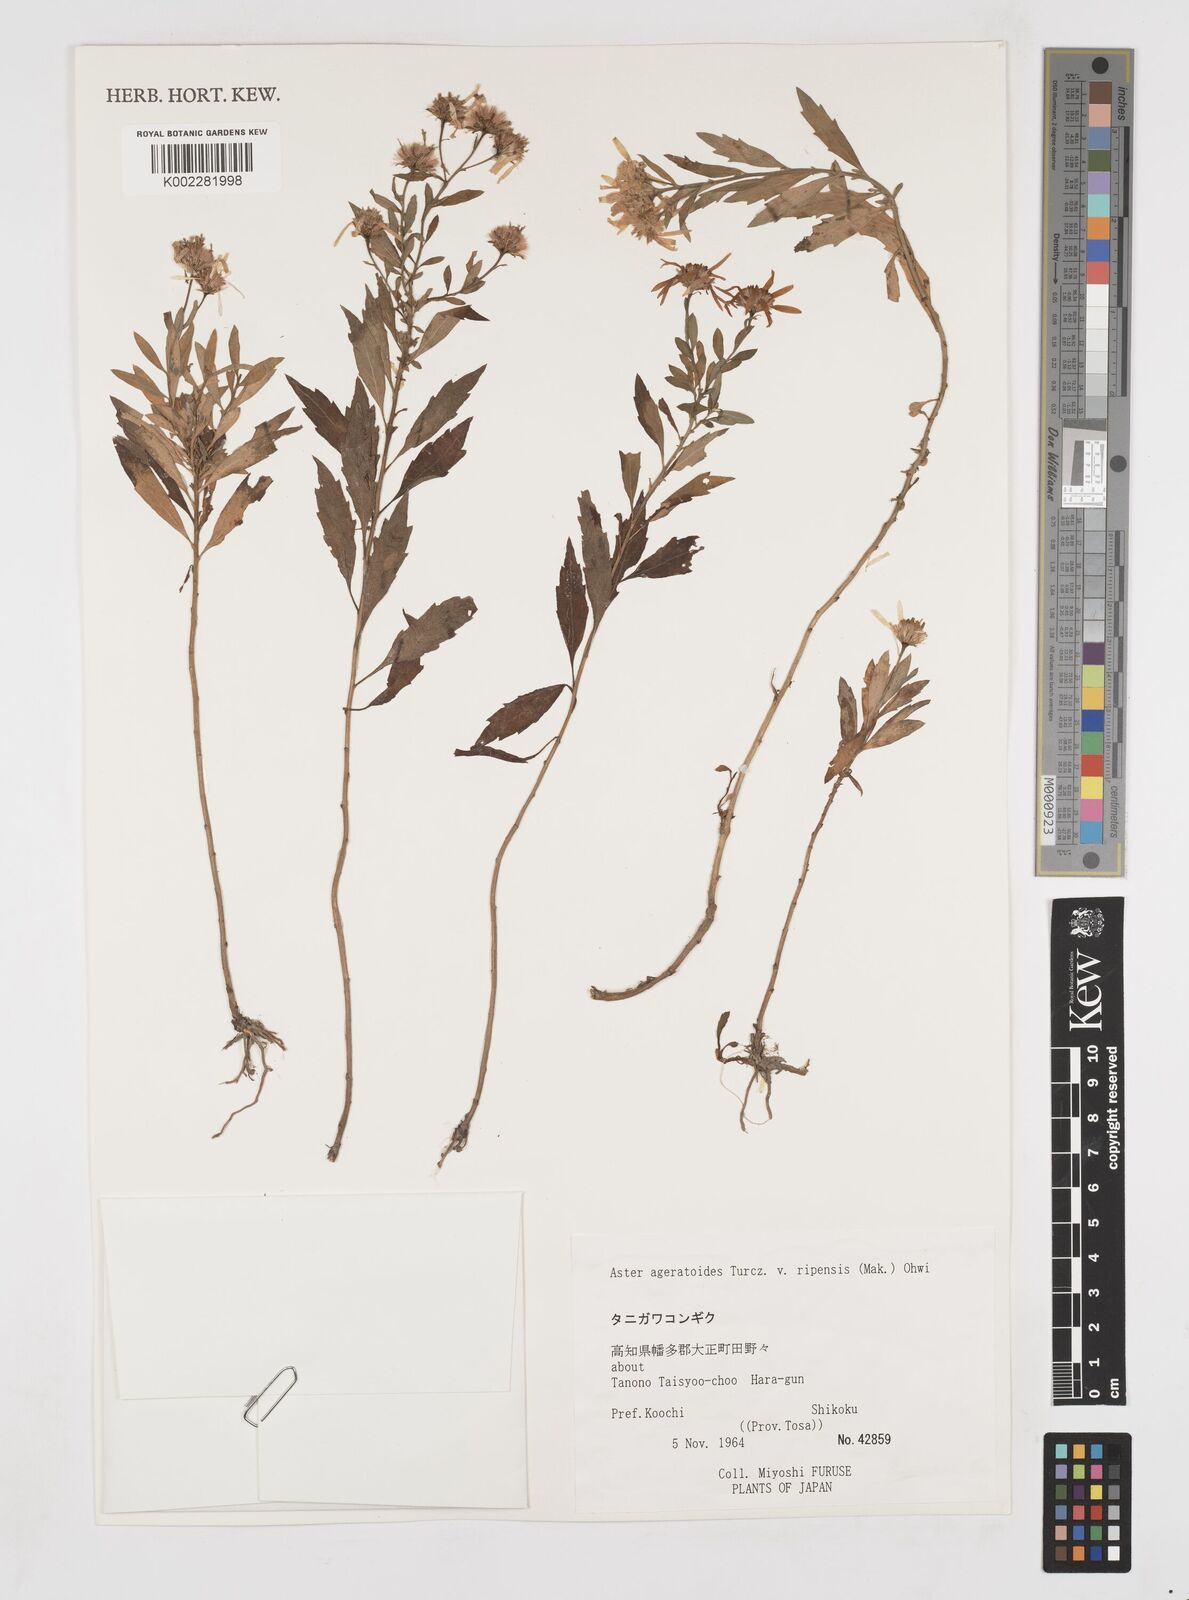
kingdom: Plantae
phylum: Tracheophyta
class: Magnoliopsida
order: Asterales
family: Asteraceae
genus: Aster
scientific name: Aster trinervius
